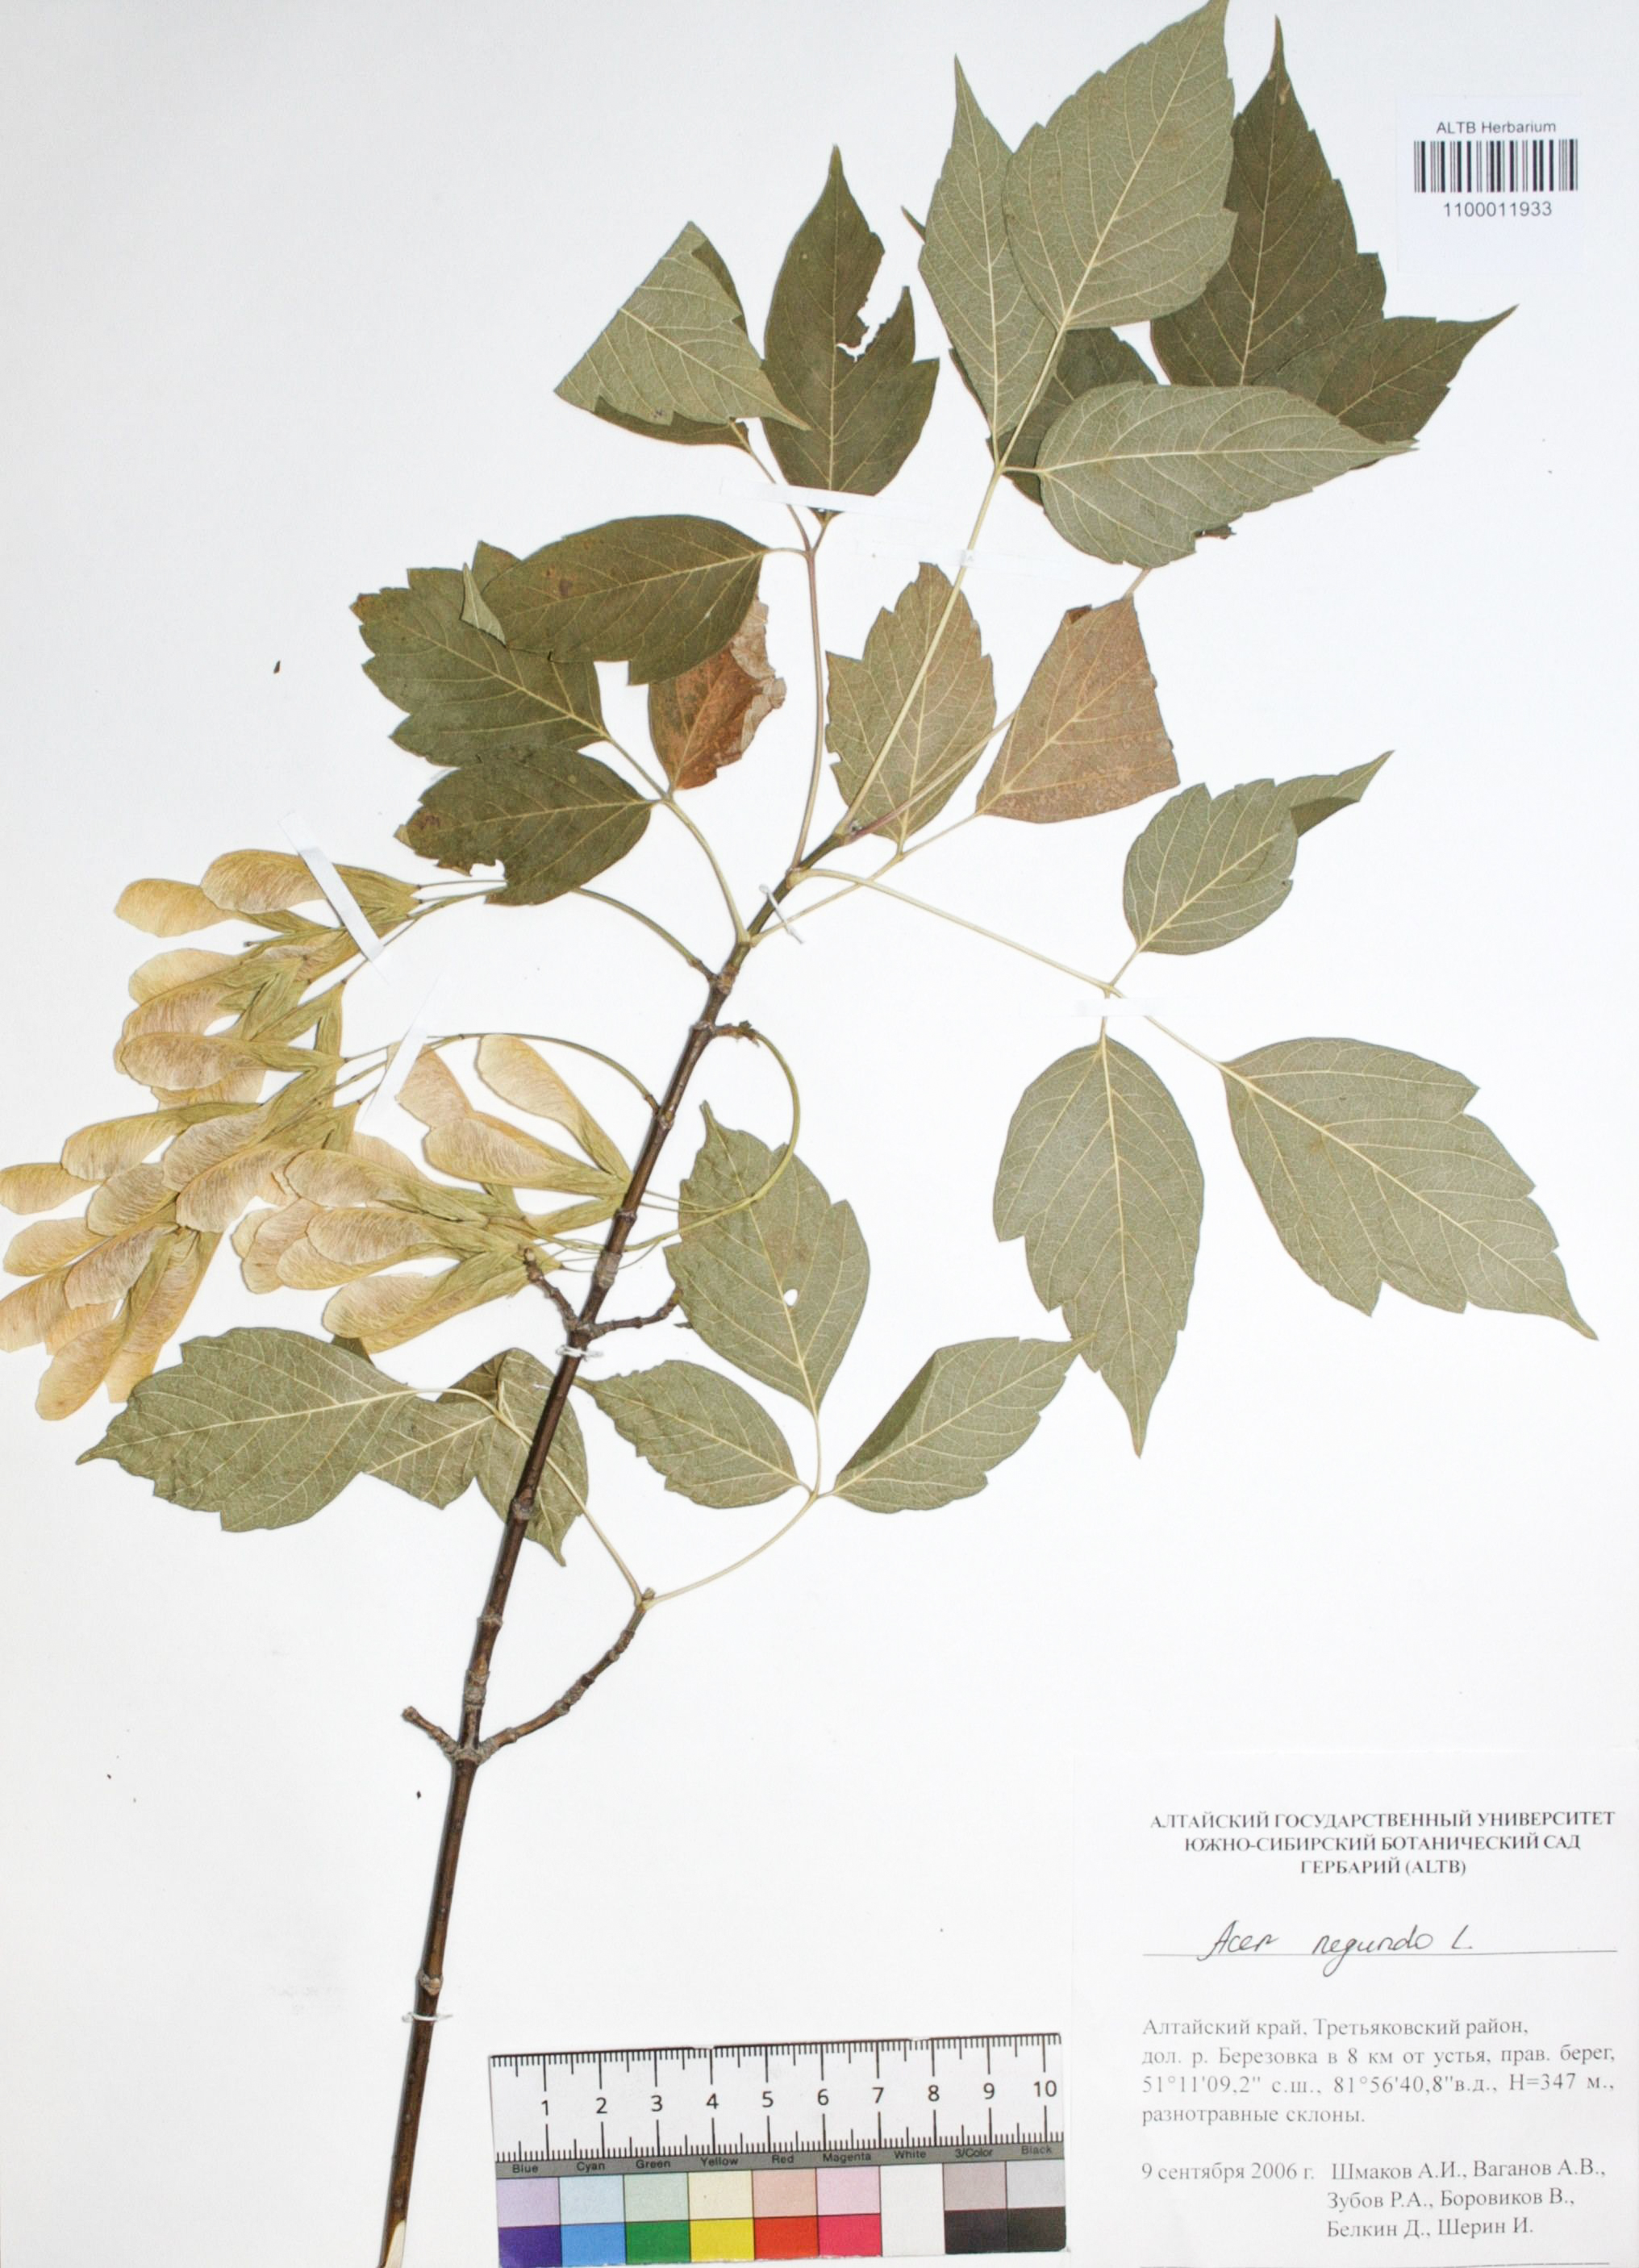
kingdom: Plantae
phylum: Tracheophyta
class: Magnoliopsida
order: Sapindales
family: Sapindaceae
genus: Acer
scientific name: Acer negundo
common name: Ashleaf maple
